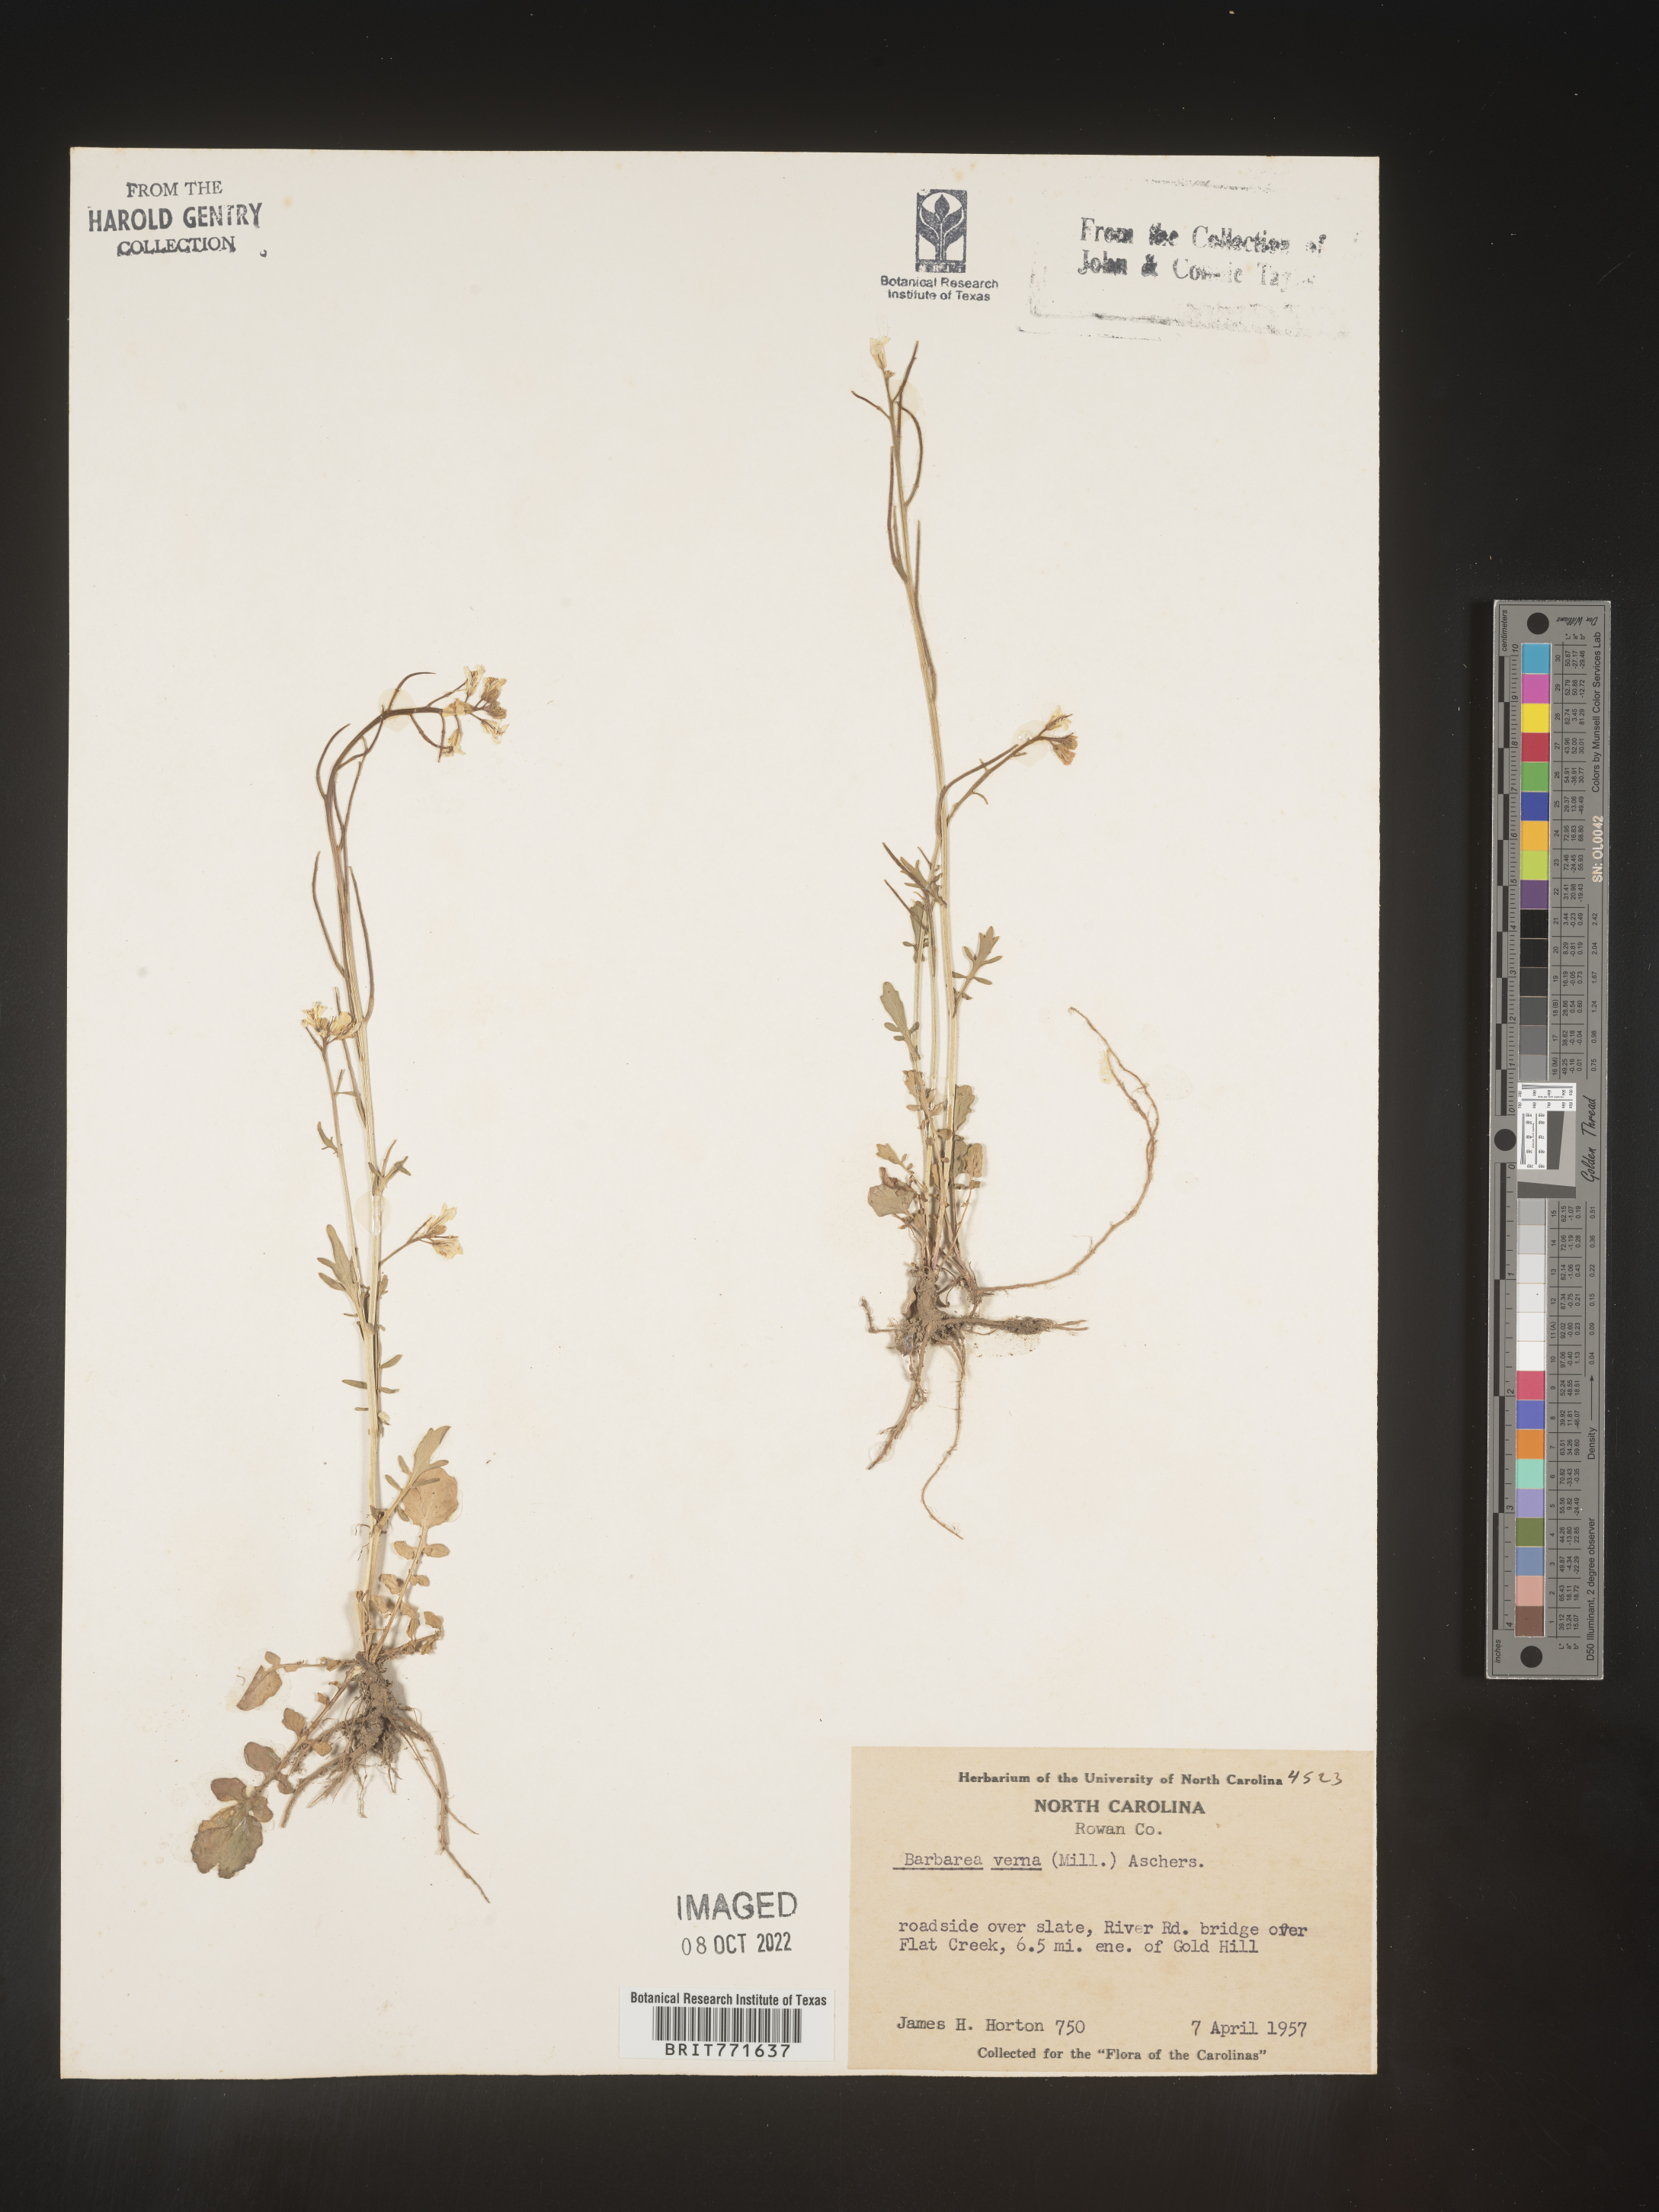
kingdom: Plantae
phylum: Tracheophyta
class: Magnoliopsida
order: Brassicales
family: Brassicaceae
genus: Barbarea
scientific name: Barbarea verna
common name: American cress
